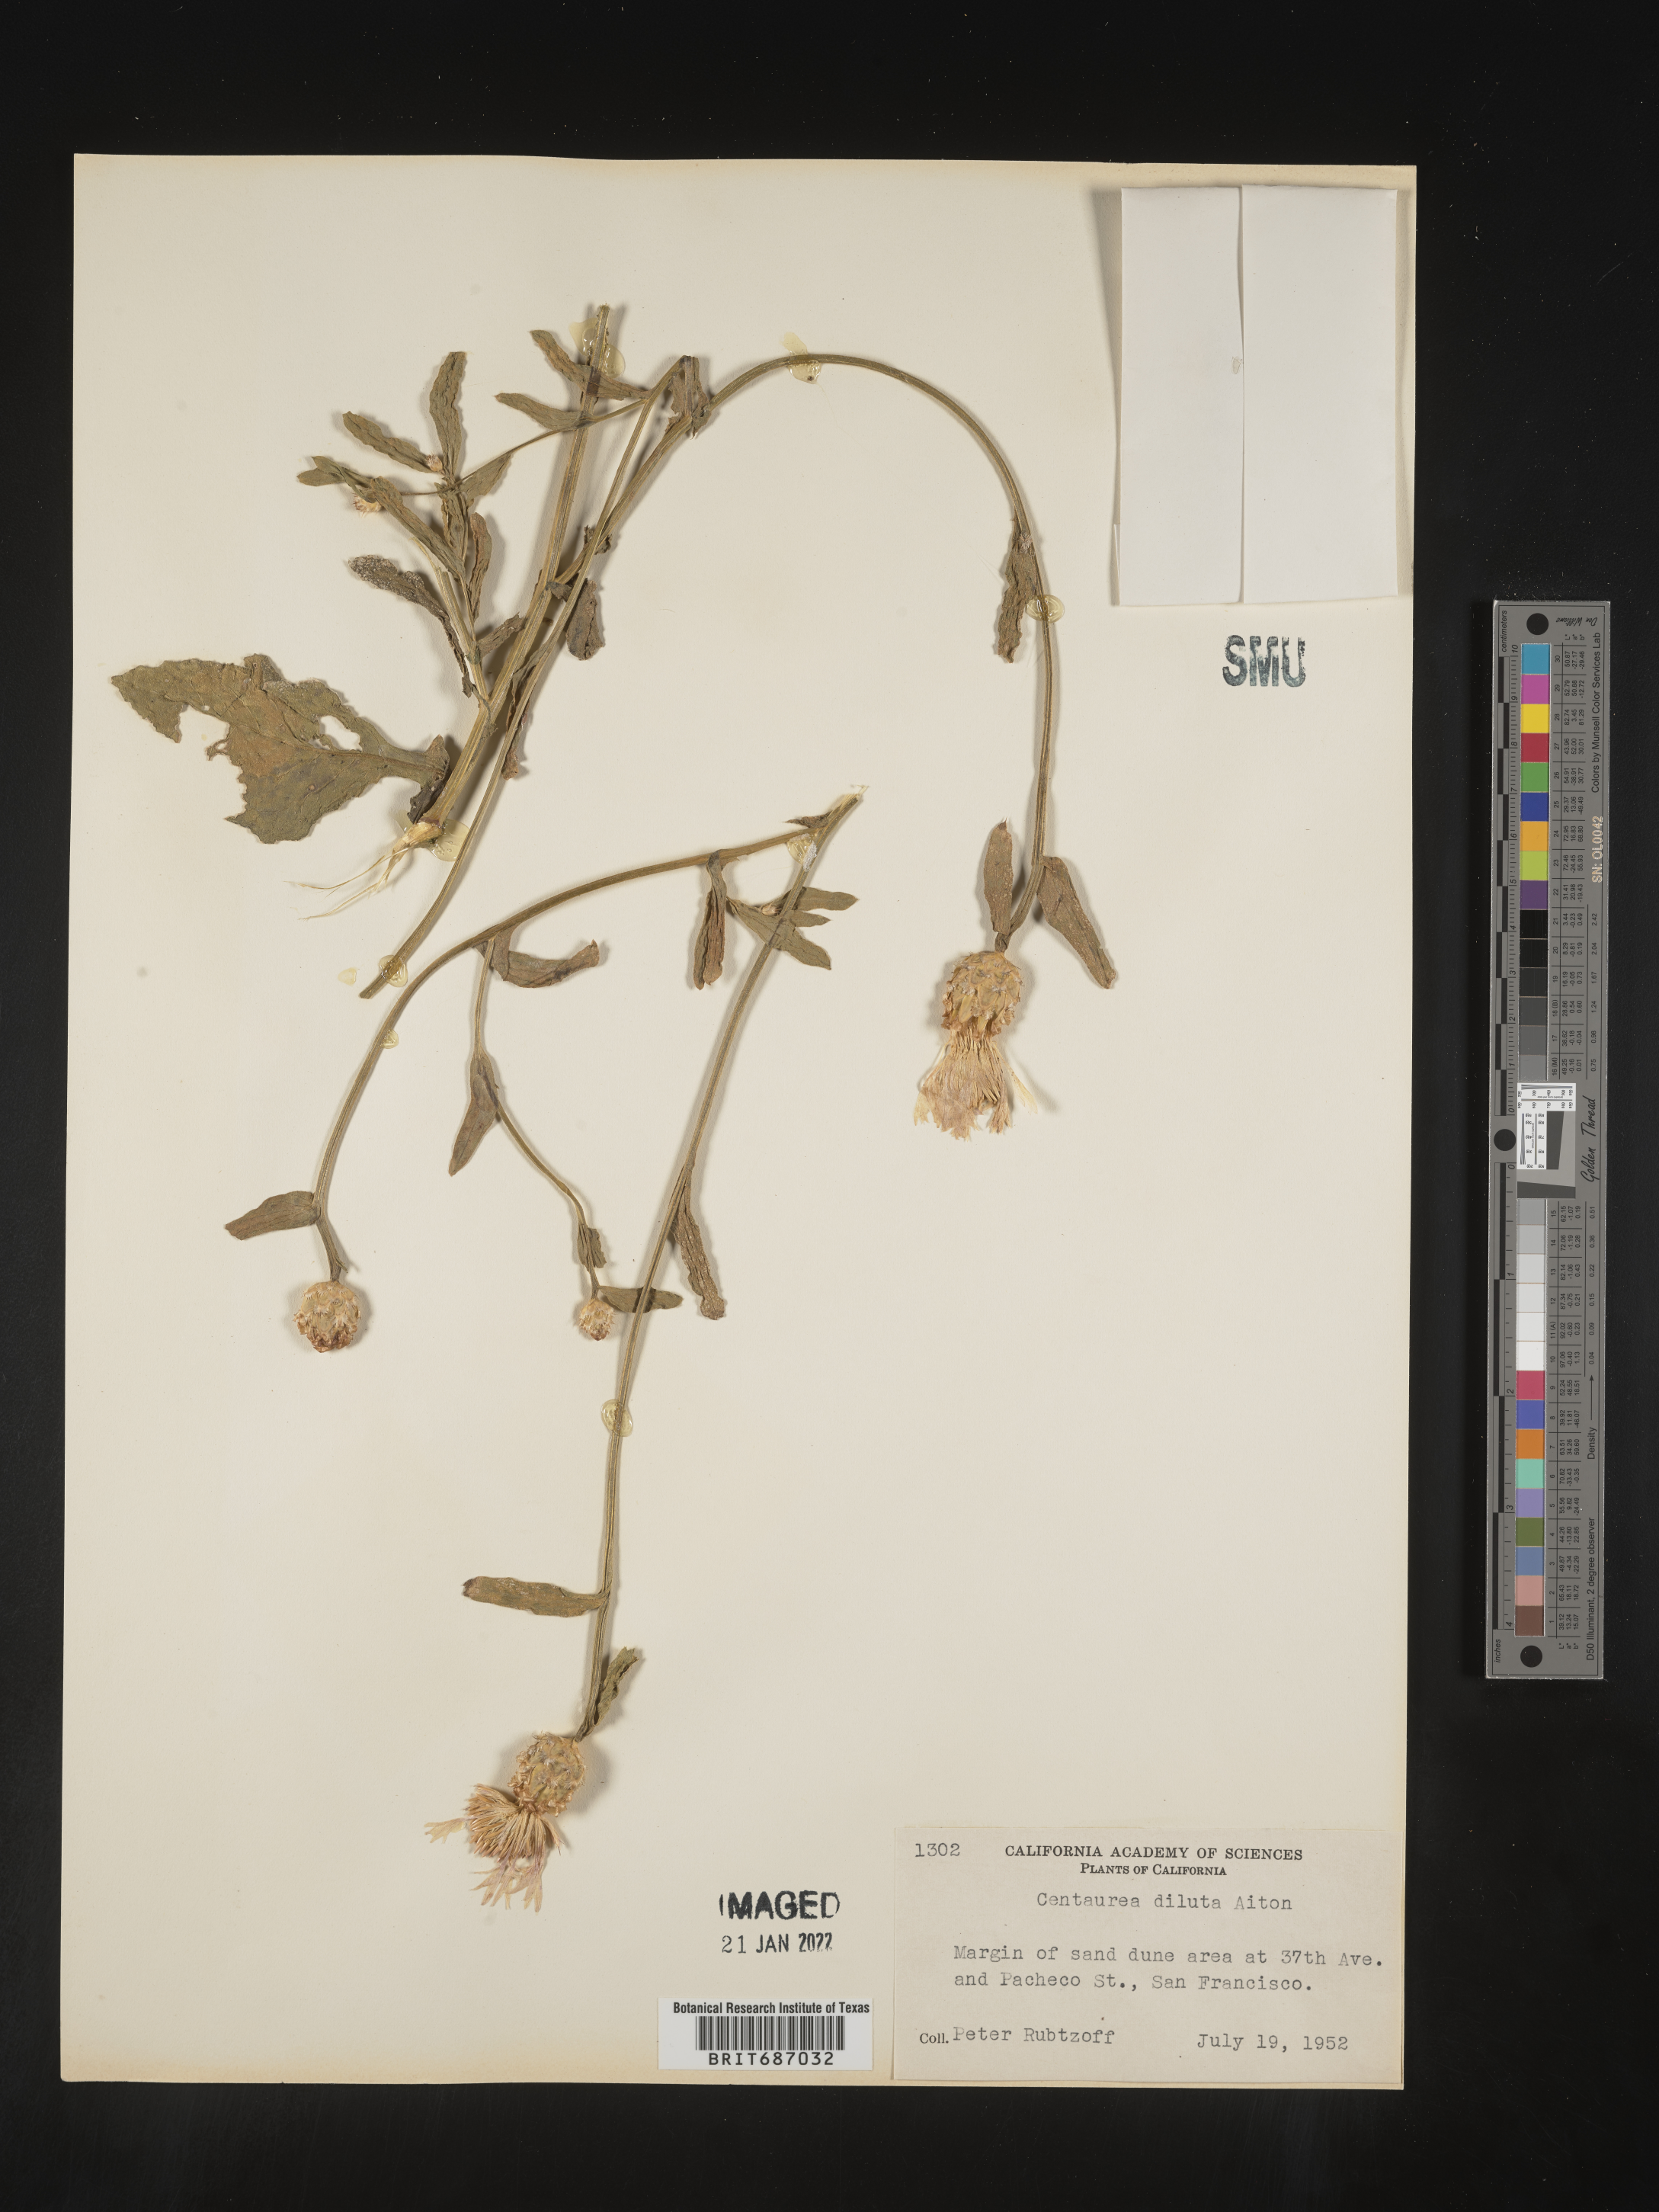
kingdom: Plantae
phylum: Tracheophyta
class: Magnoliopsida
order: Asterales
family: Asteraceae
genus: Centaurea
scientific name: Centaurea diluta
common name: Lesser star-thistle
